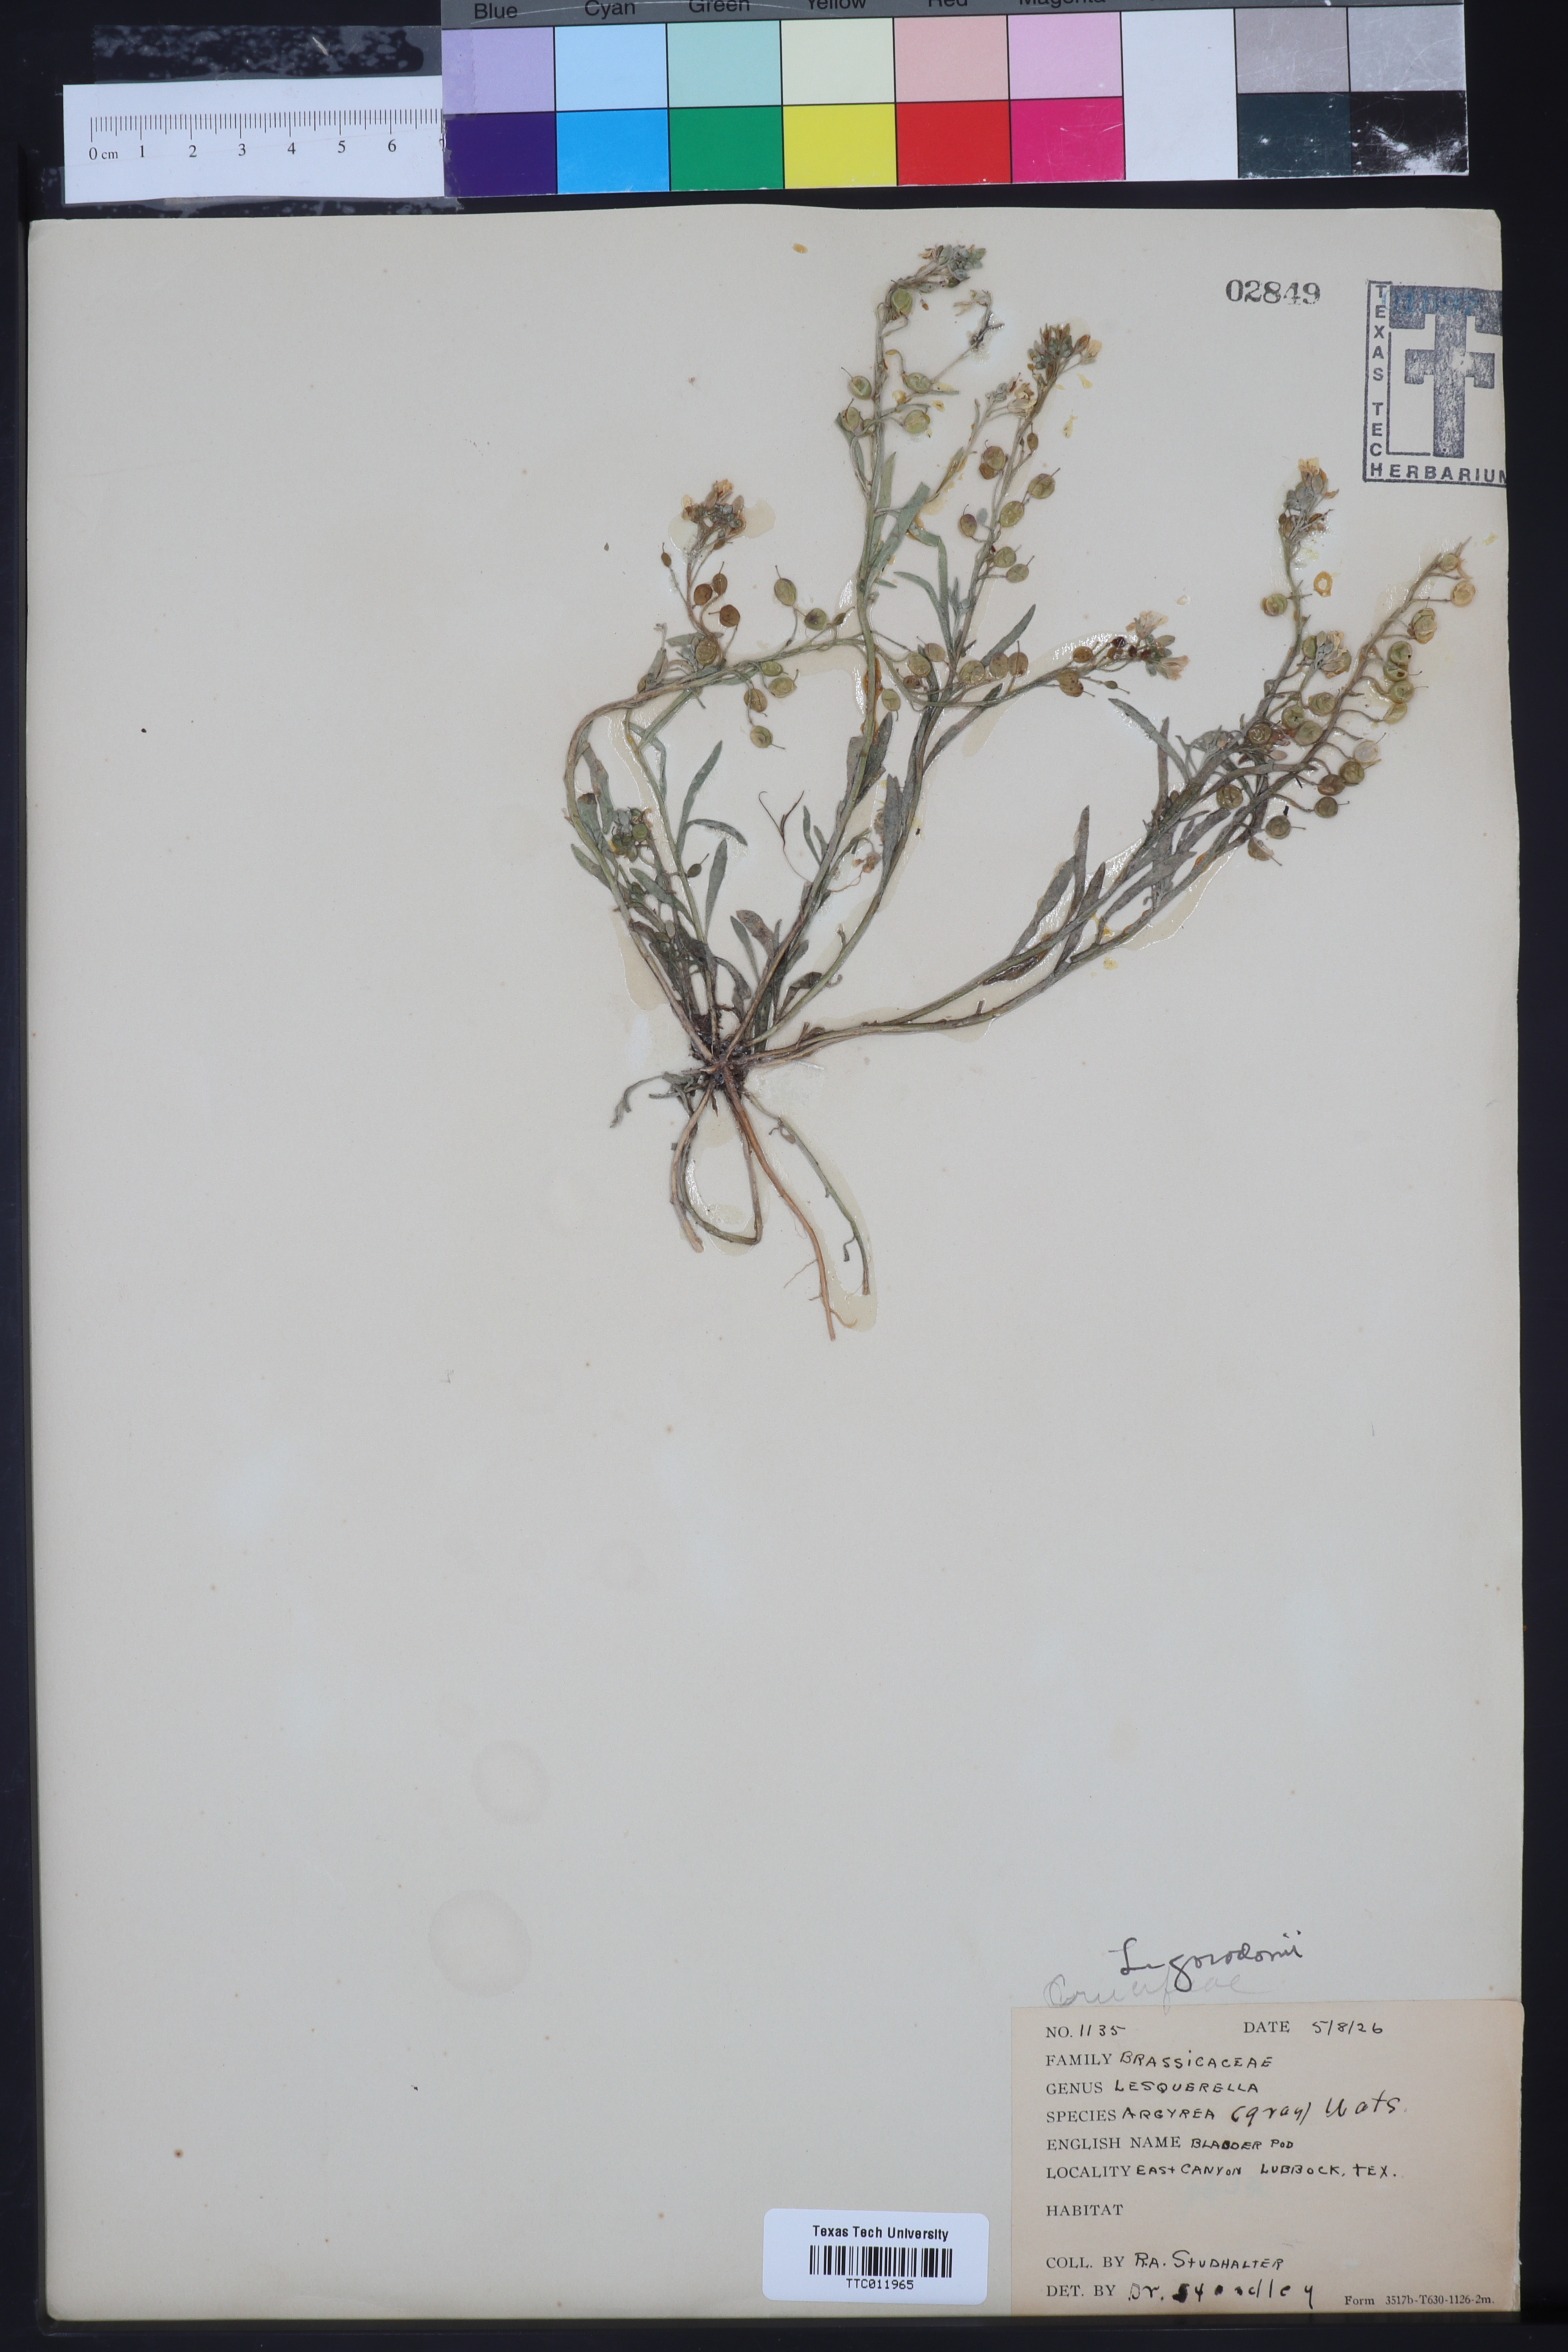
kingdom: Plantae
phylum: Tracheophyta
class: Magnoliopsida
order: Brassicales
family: Brassicaceae
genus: Physaria
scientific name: Physaria gordonii
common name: Gordon's bladderpod
